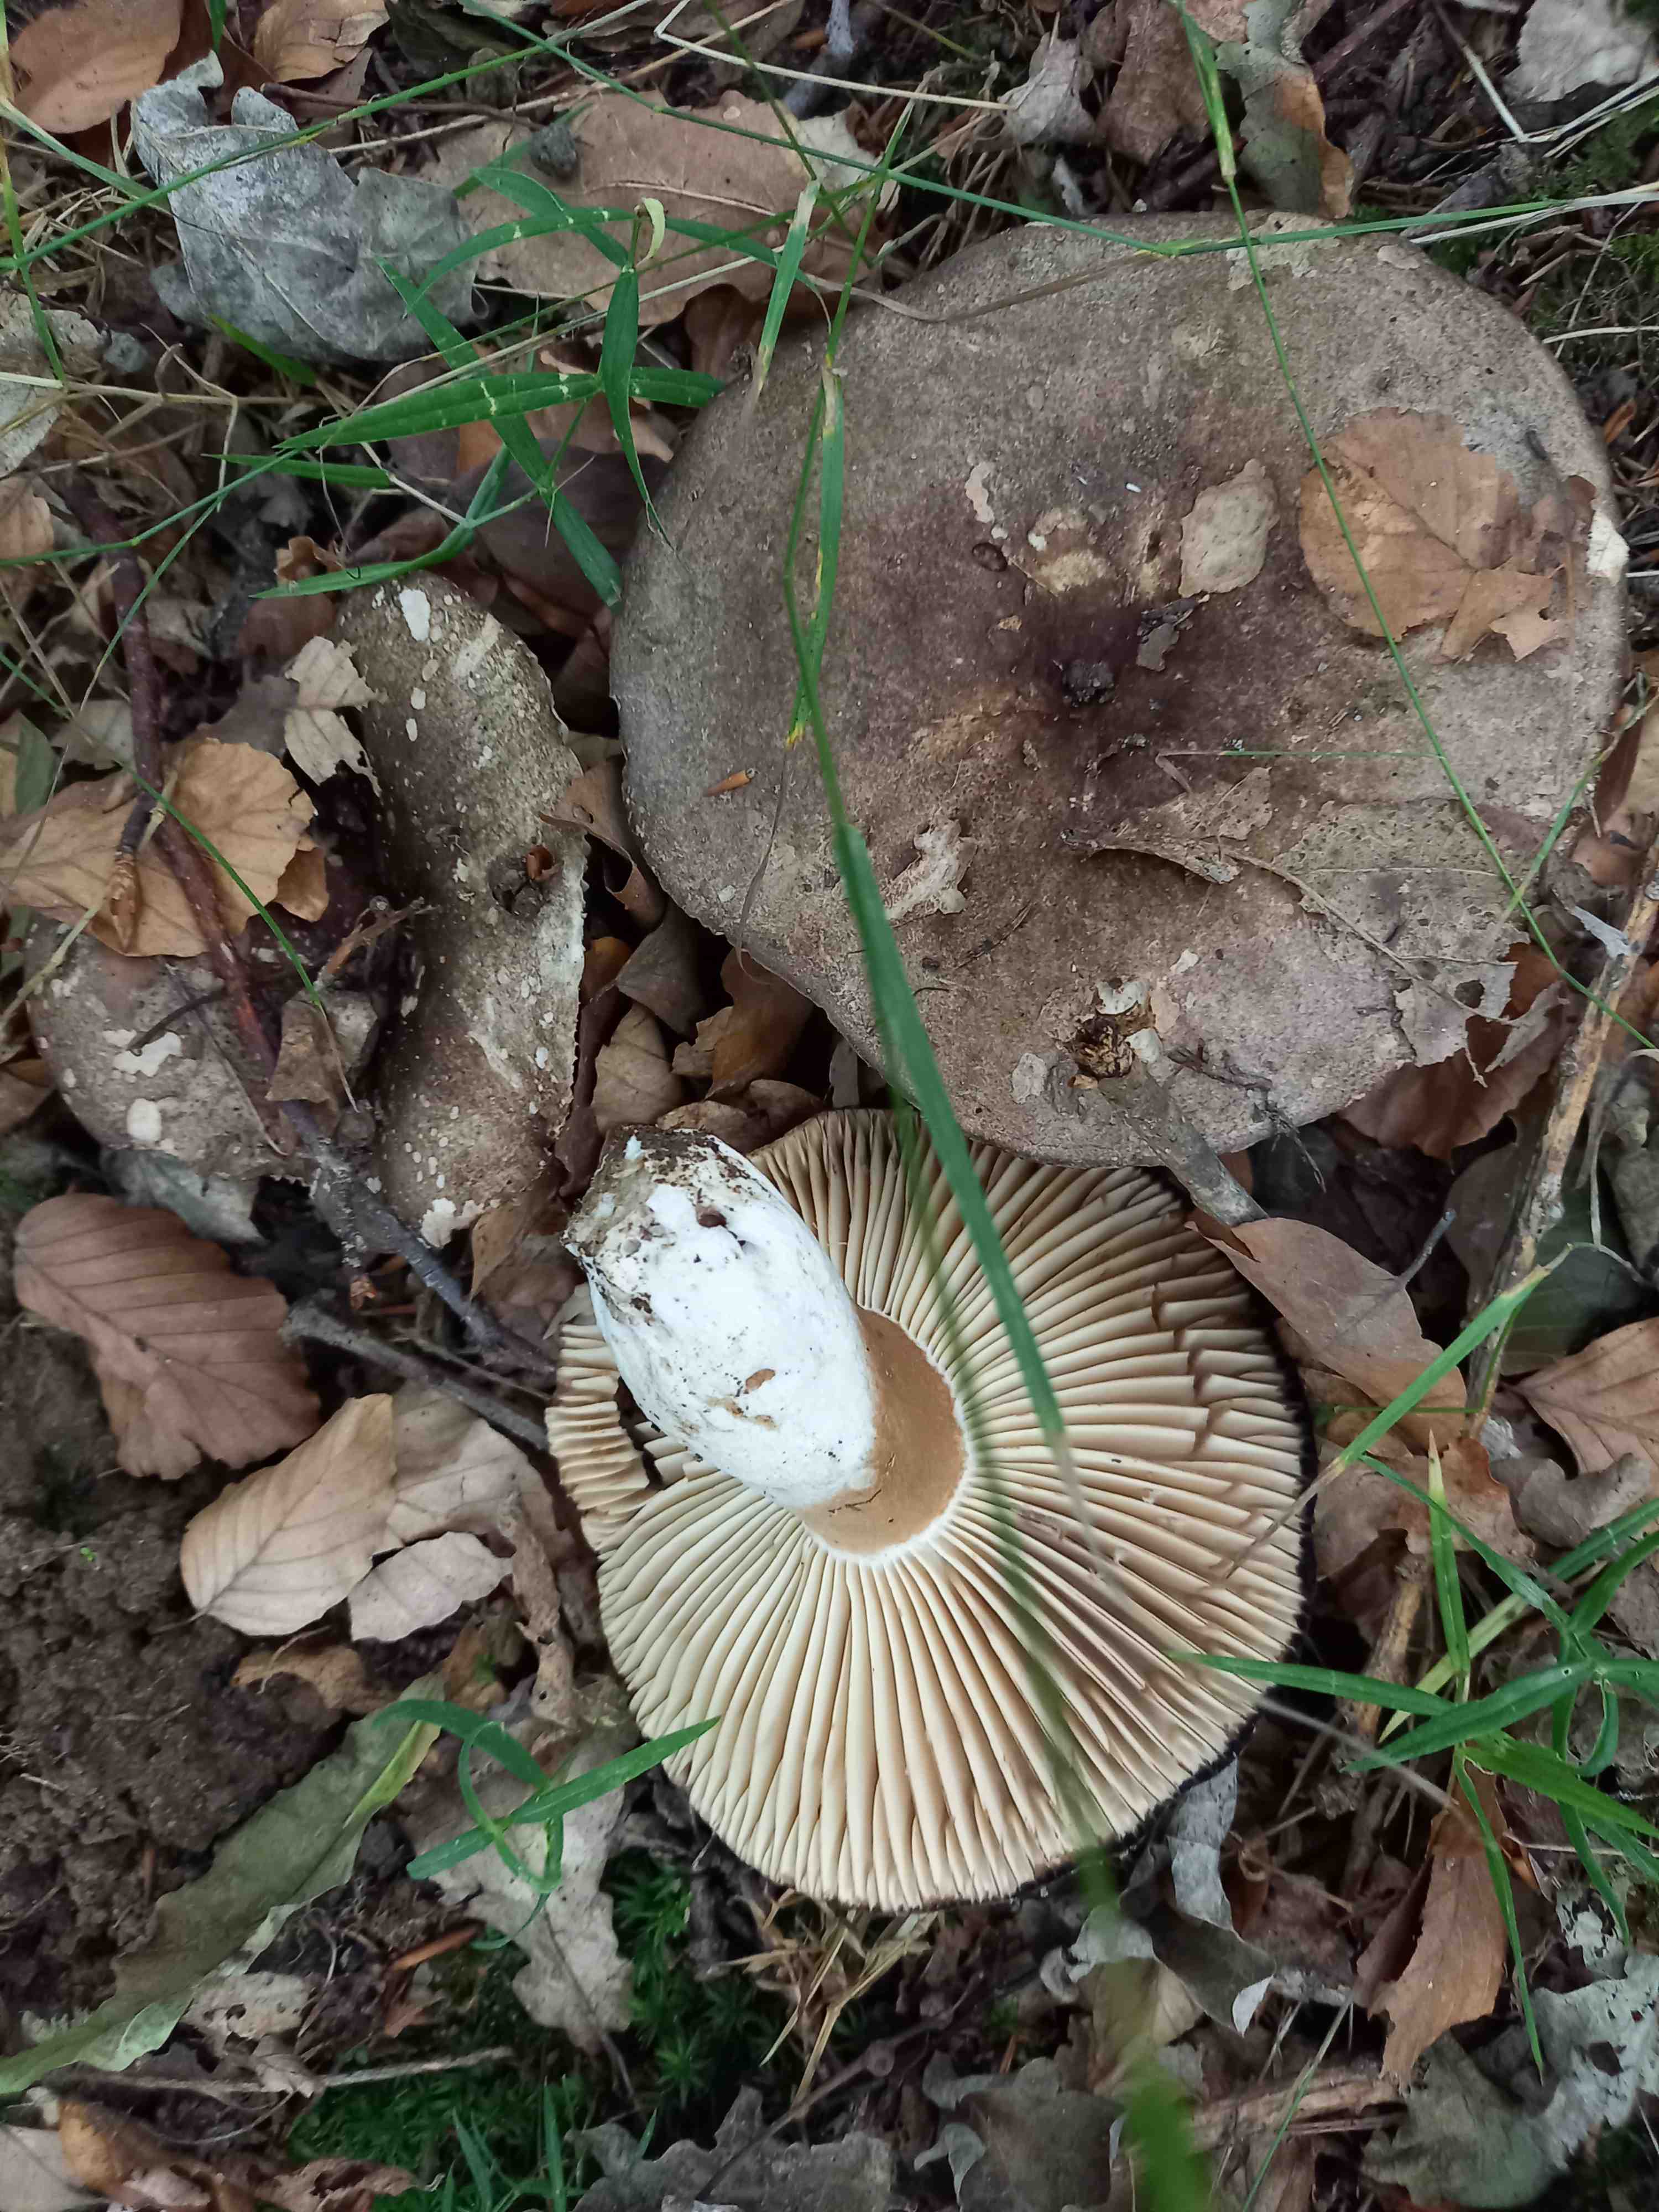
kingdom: Fungi
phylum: Basidiomycota
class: Agaricomycetes
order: Russulales
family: Russulaceae
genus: Russula
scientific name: Russula adusta
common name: sværtende skørhat
